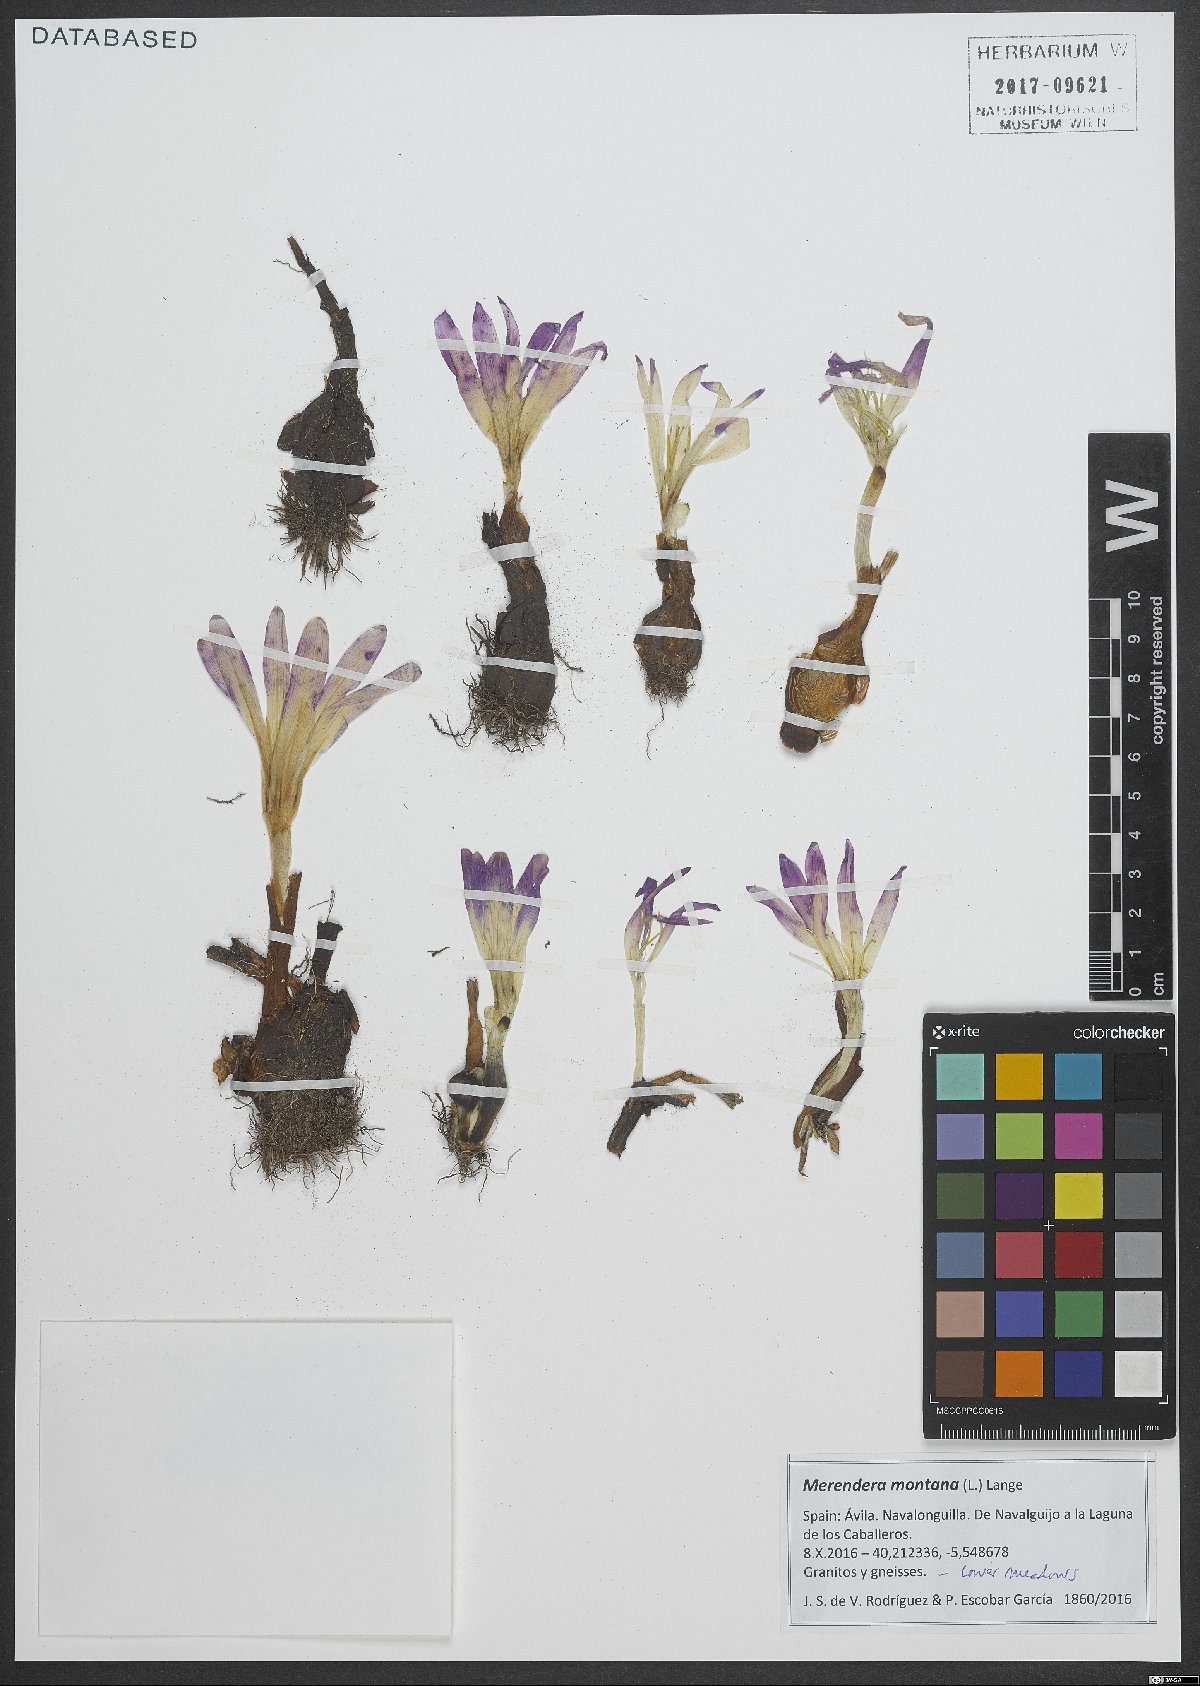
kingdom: Plantae
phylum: Tracheophyta
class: Liliopsida
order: Liliales
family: Colchicaceae
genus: Colchicum
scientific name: Colchicum montanum
